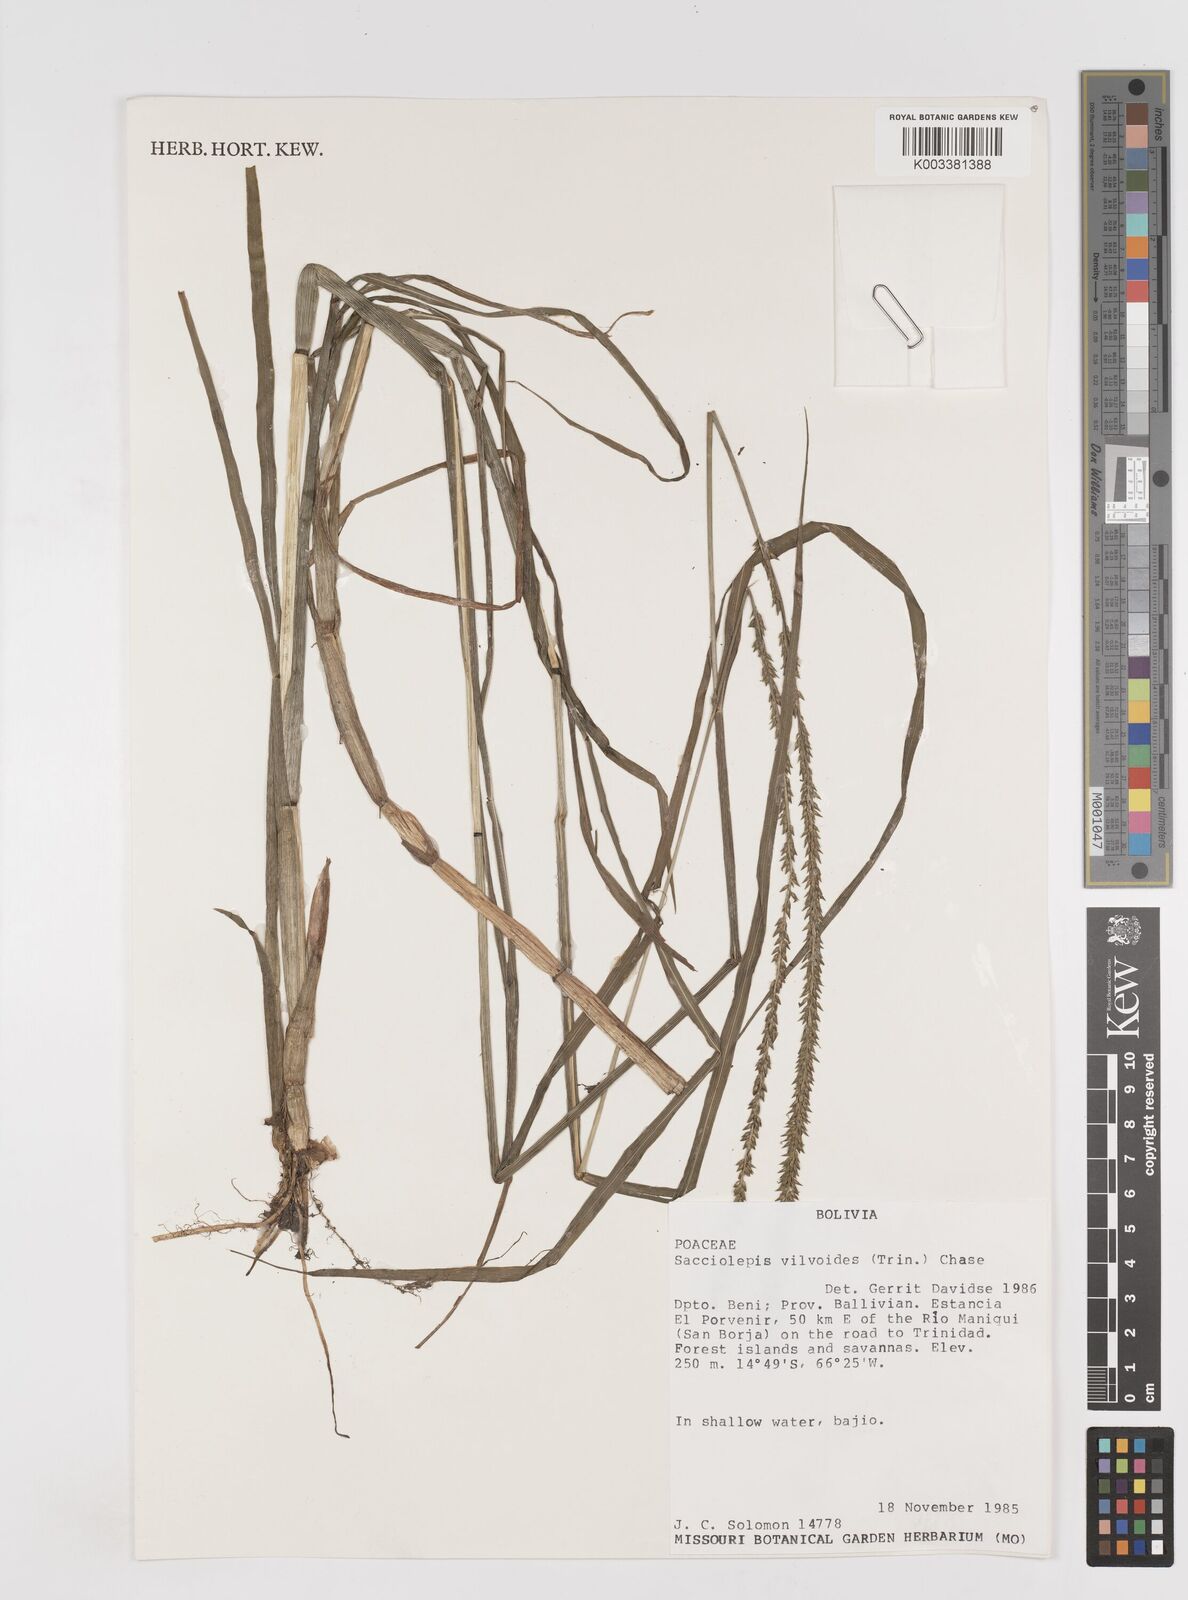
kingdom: Plantae
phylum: Tracheophyta
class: Liliopsida
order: Poales
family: Poaceae
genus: Sacciolepis
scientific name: Sacciolepis vilvoides
